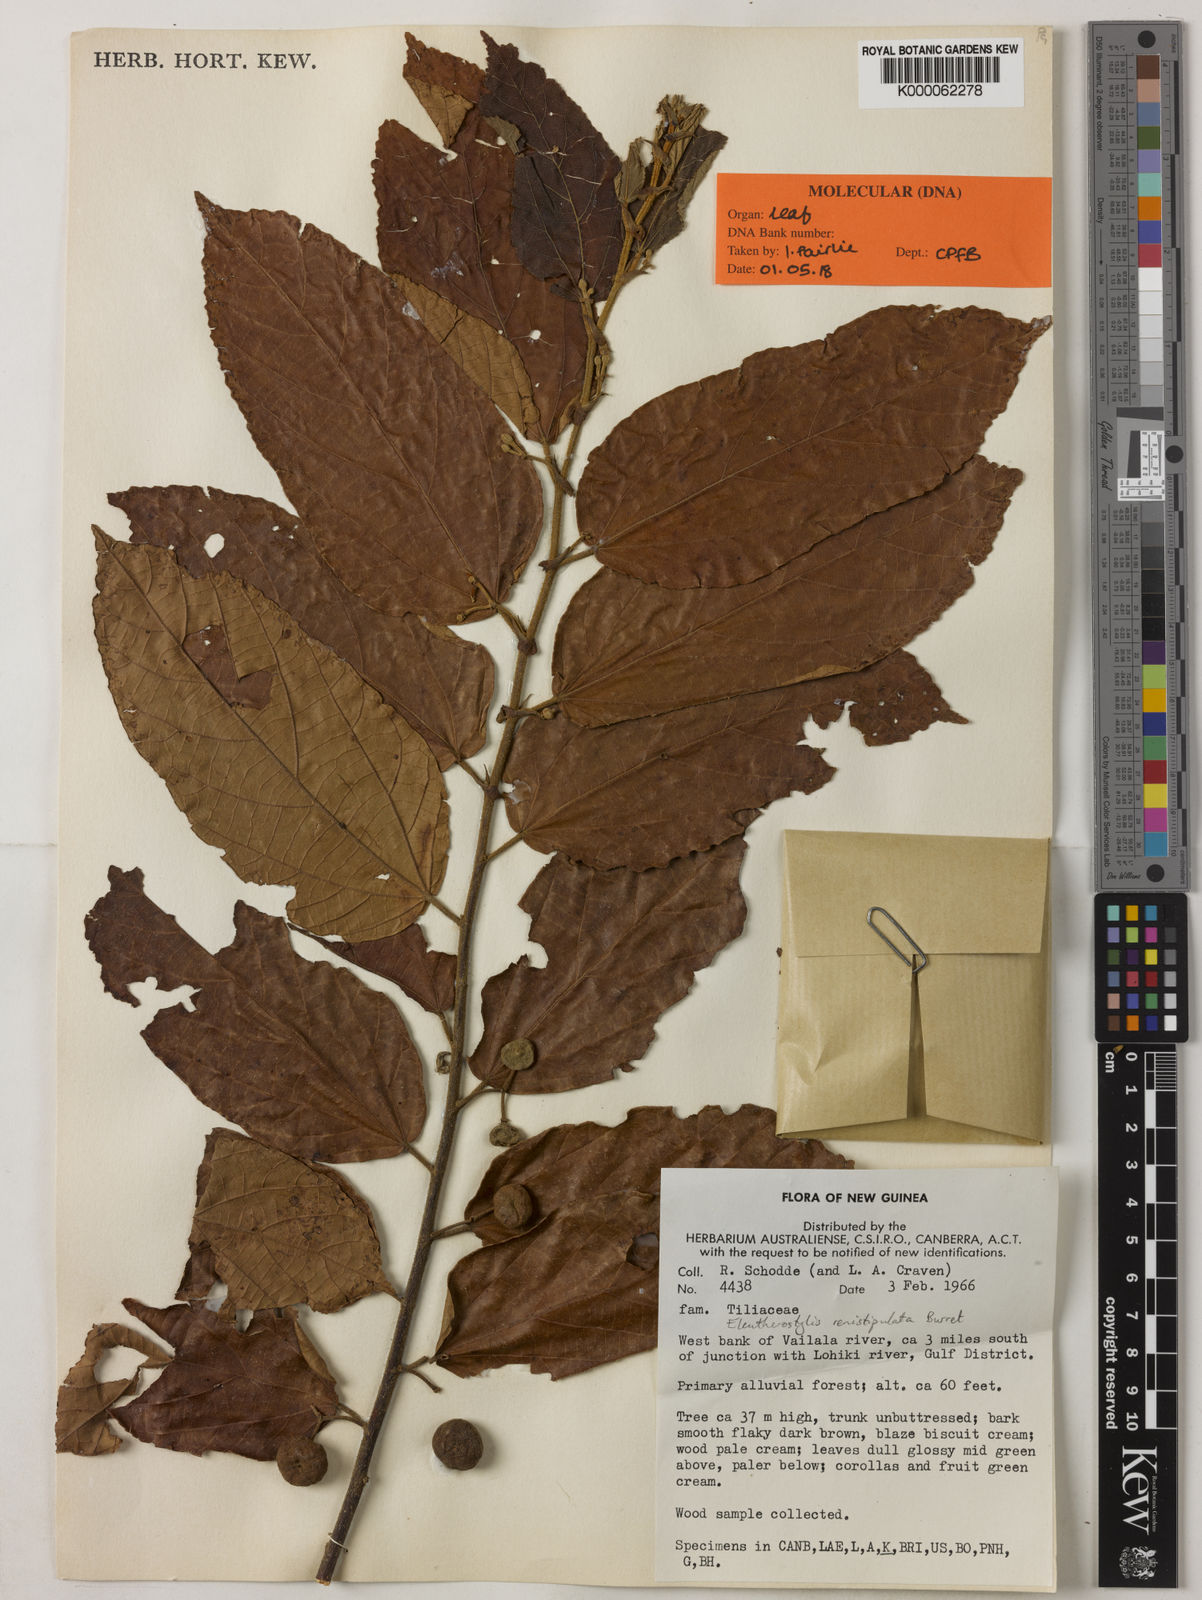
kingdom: Plantae
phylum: Tracheophyta
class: Magnoliopsida
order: Malvales
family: Malvaceae
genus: Eleutherostylis
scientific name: Eleutherostylis renistipulata
